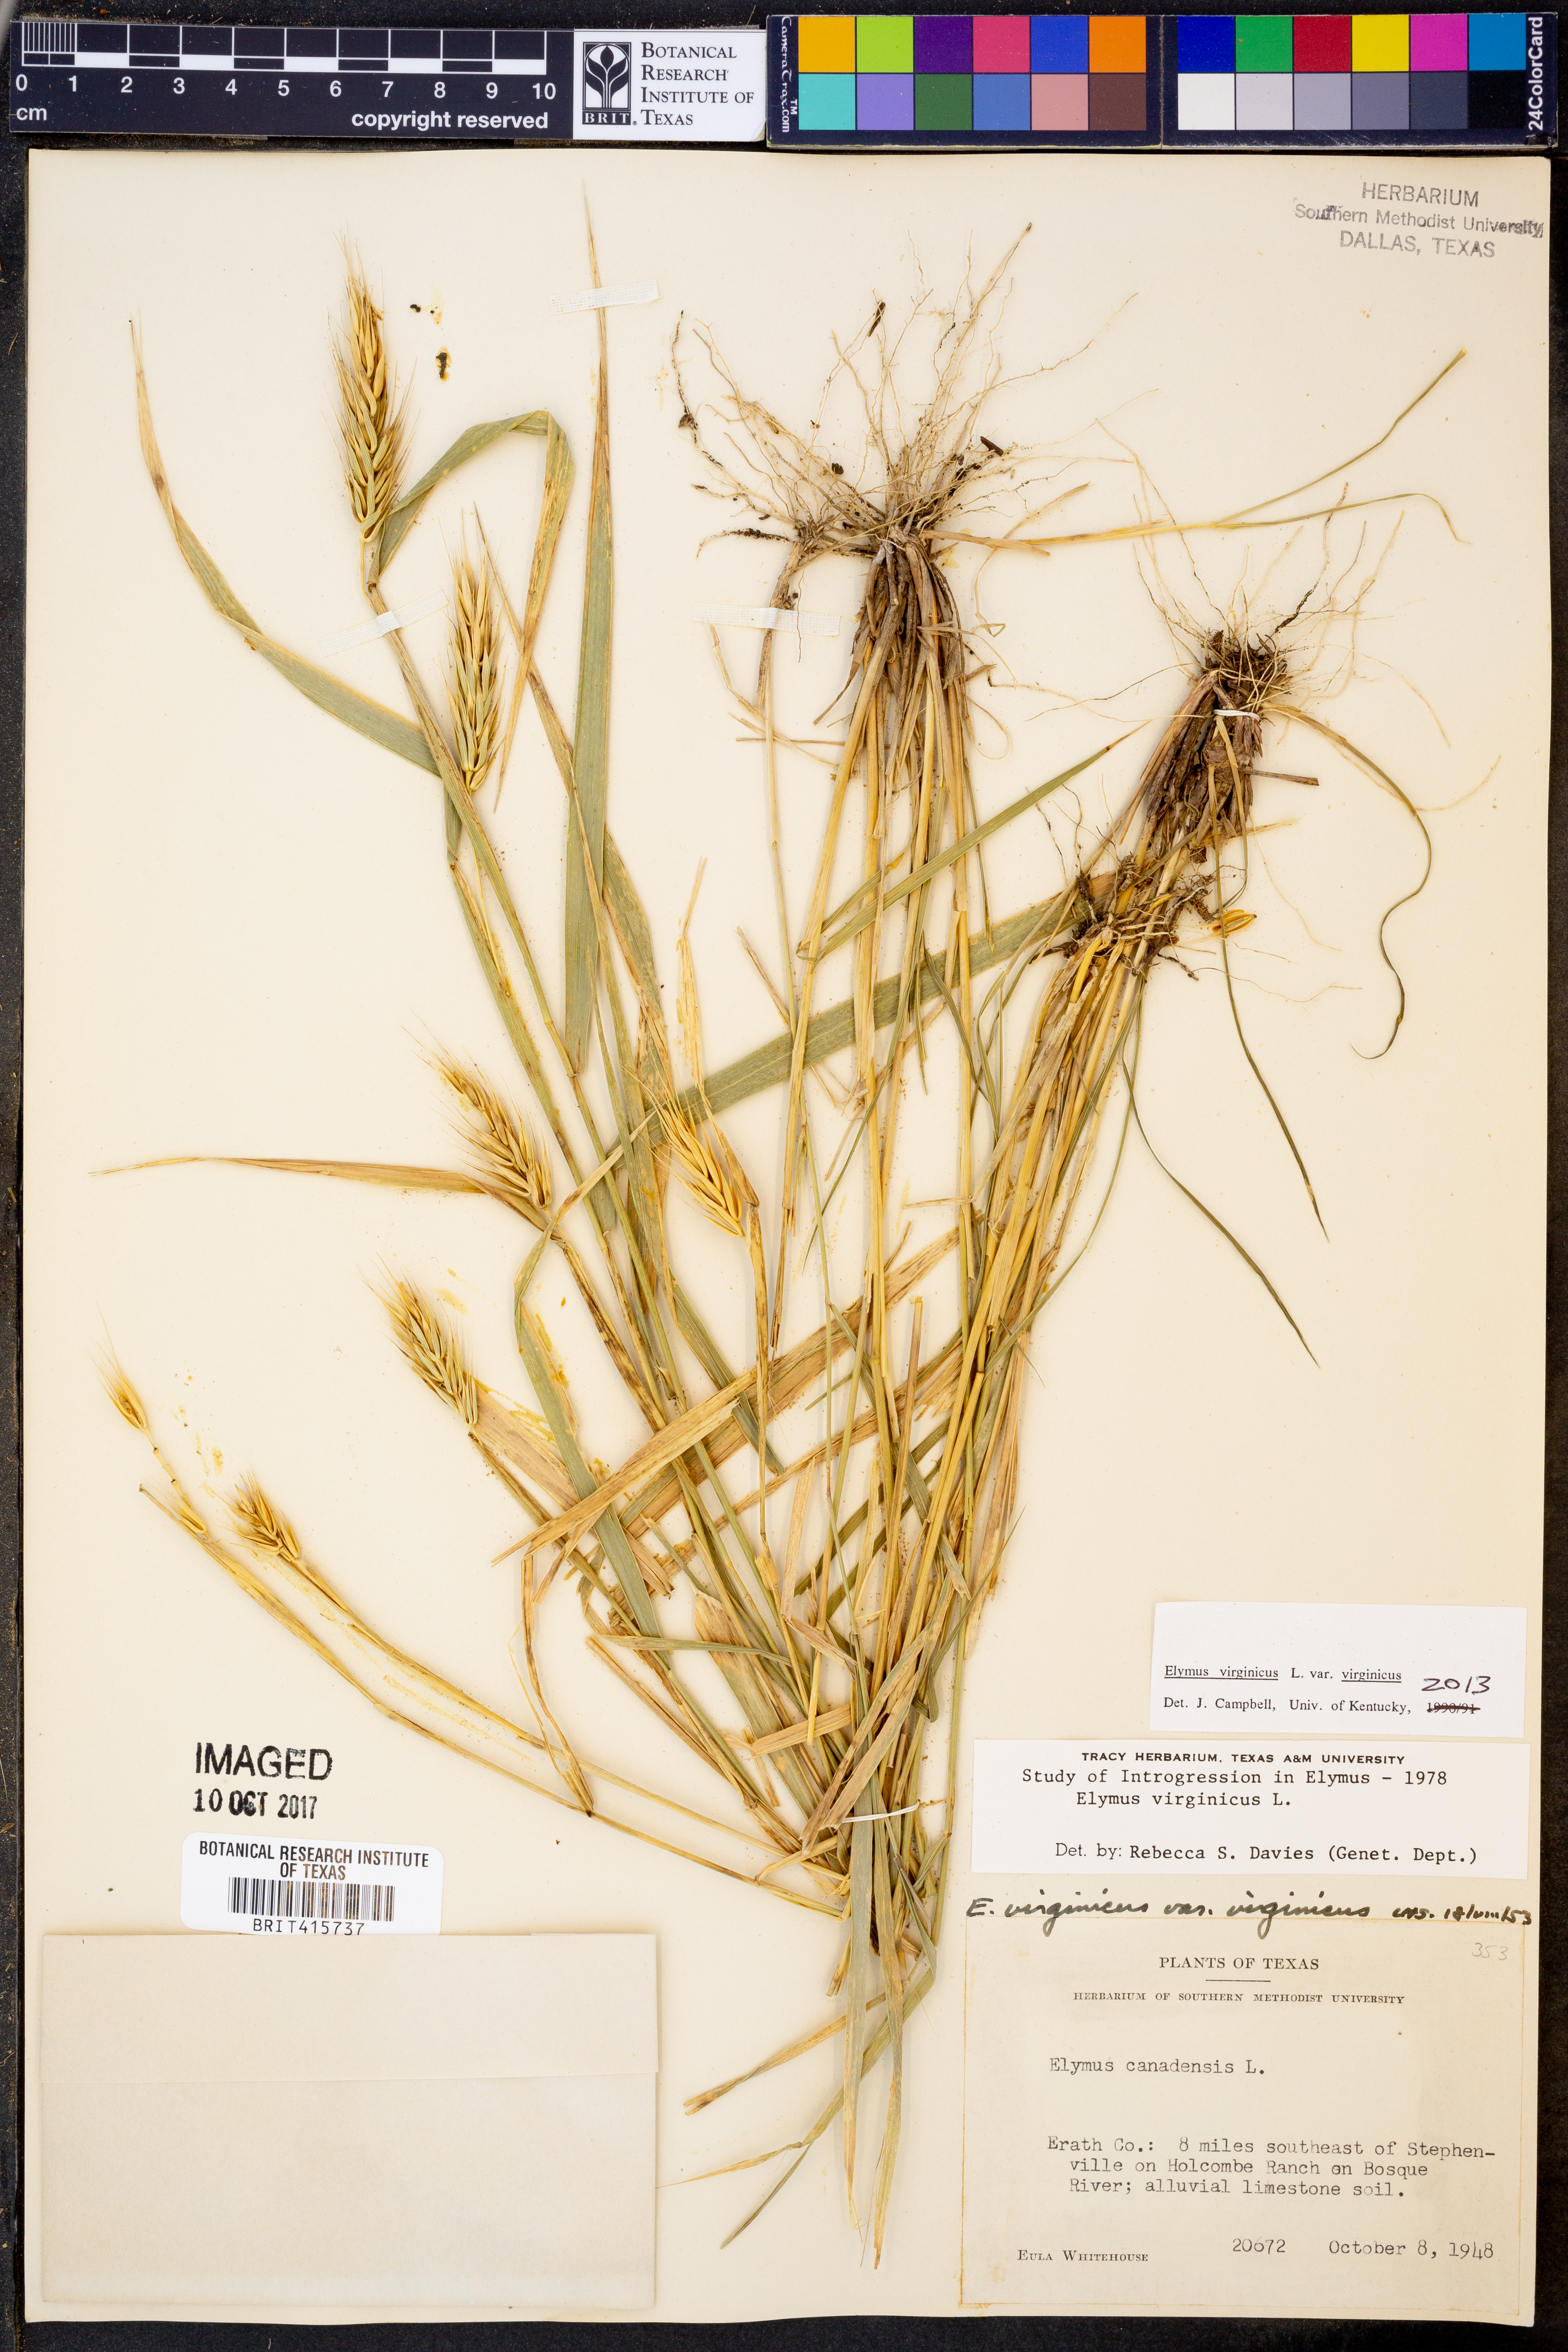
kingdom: Plantae
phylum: Tracheophyta
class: Liliopsida
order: Poales
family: Poaceae
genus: Elymus
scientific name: Elymus virginicus
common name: Common eastern wildrye
